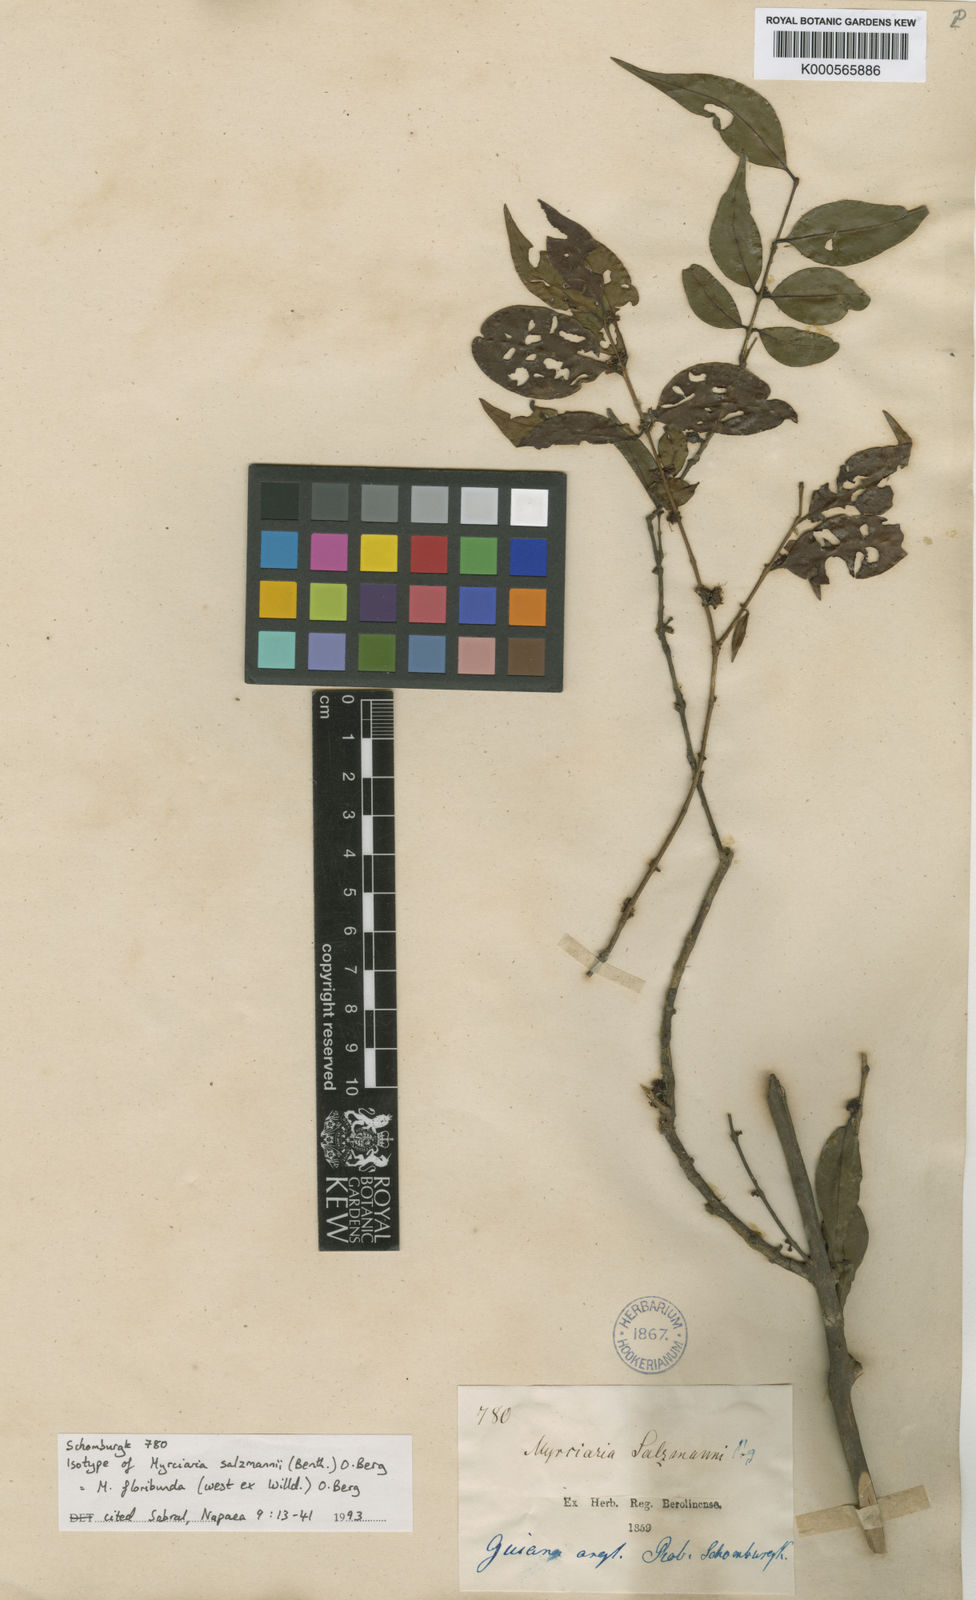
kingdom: Plantae
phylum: Tracheophyta
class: Magnoliopsida
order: Myrtales
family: Myrtaceae
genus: Myrciaria
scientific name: Myrciaria floribunda
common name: Guavaberry
